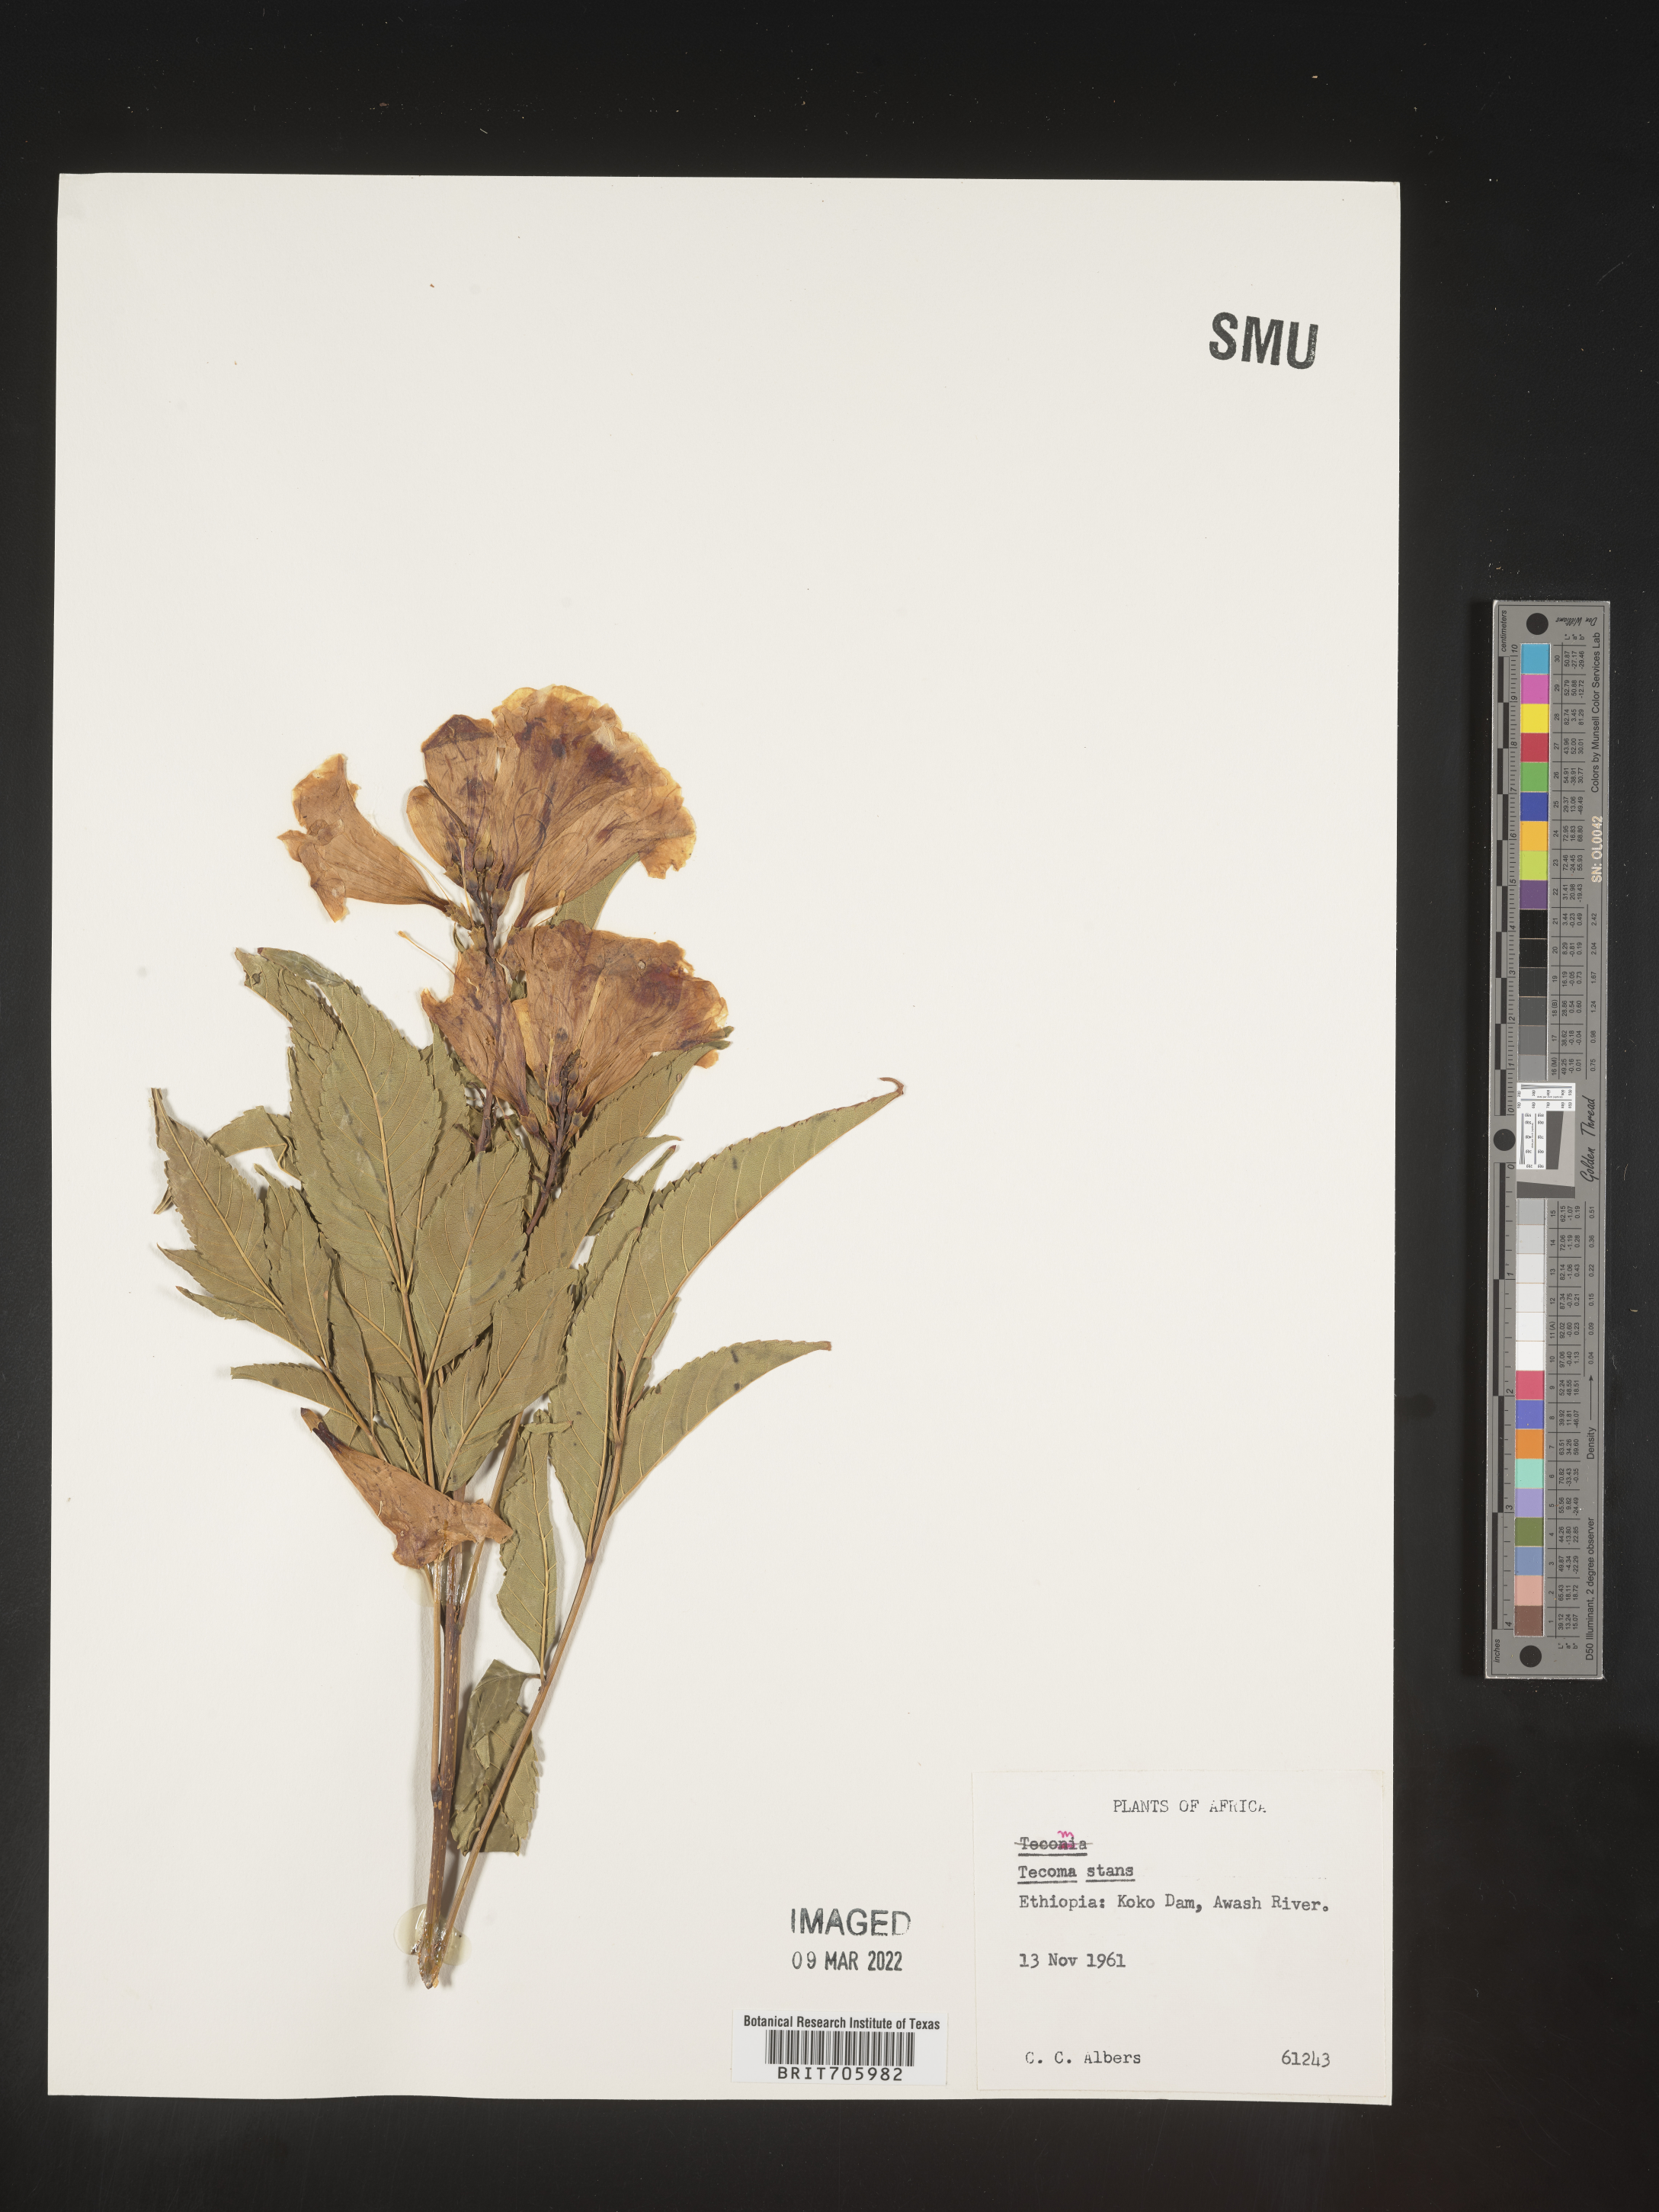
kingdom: Plantae
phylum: Tracheophyta
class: Magnoliopsida
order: Lamiales
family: Bignoniaceae
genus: Tecoma
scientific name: Tecoma
